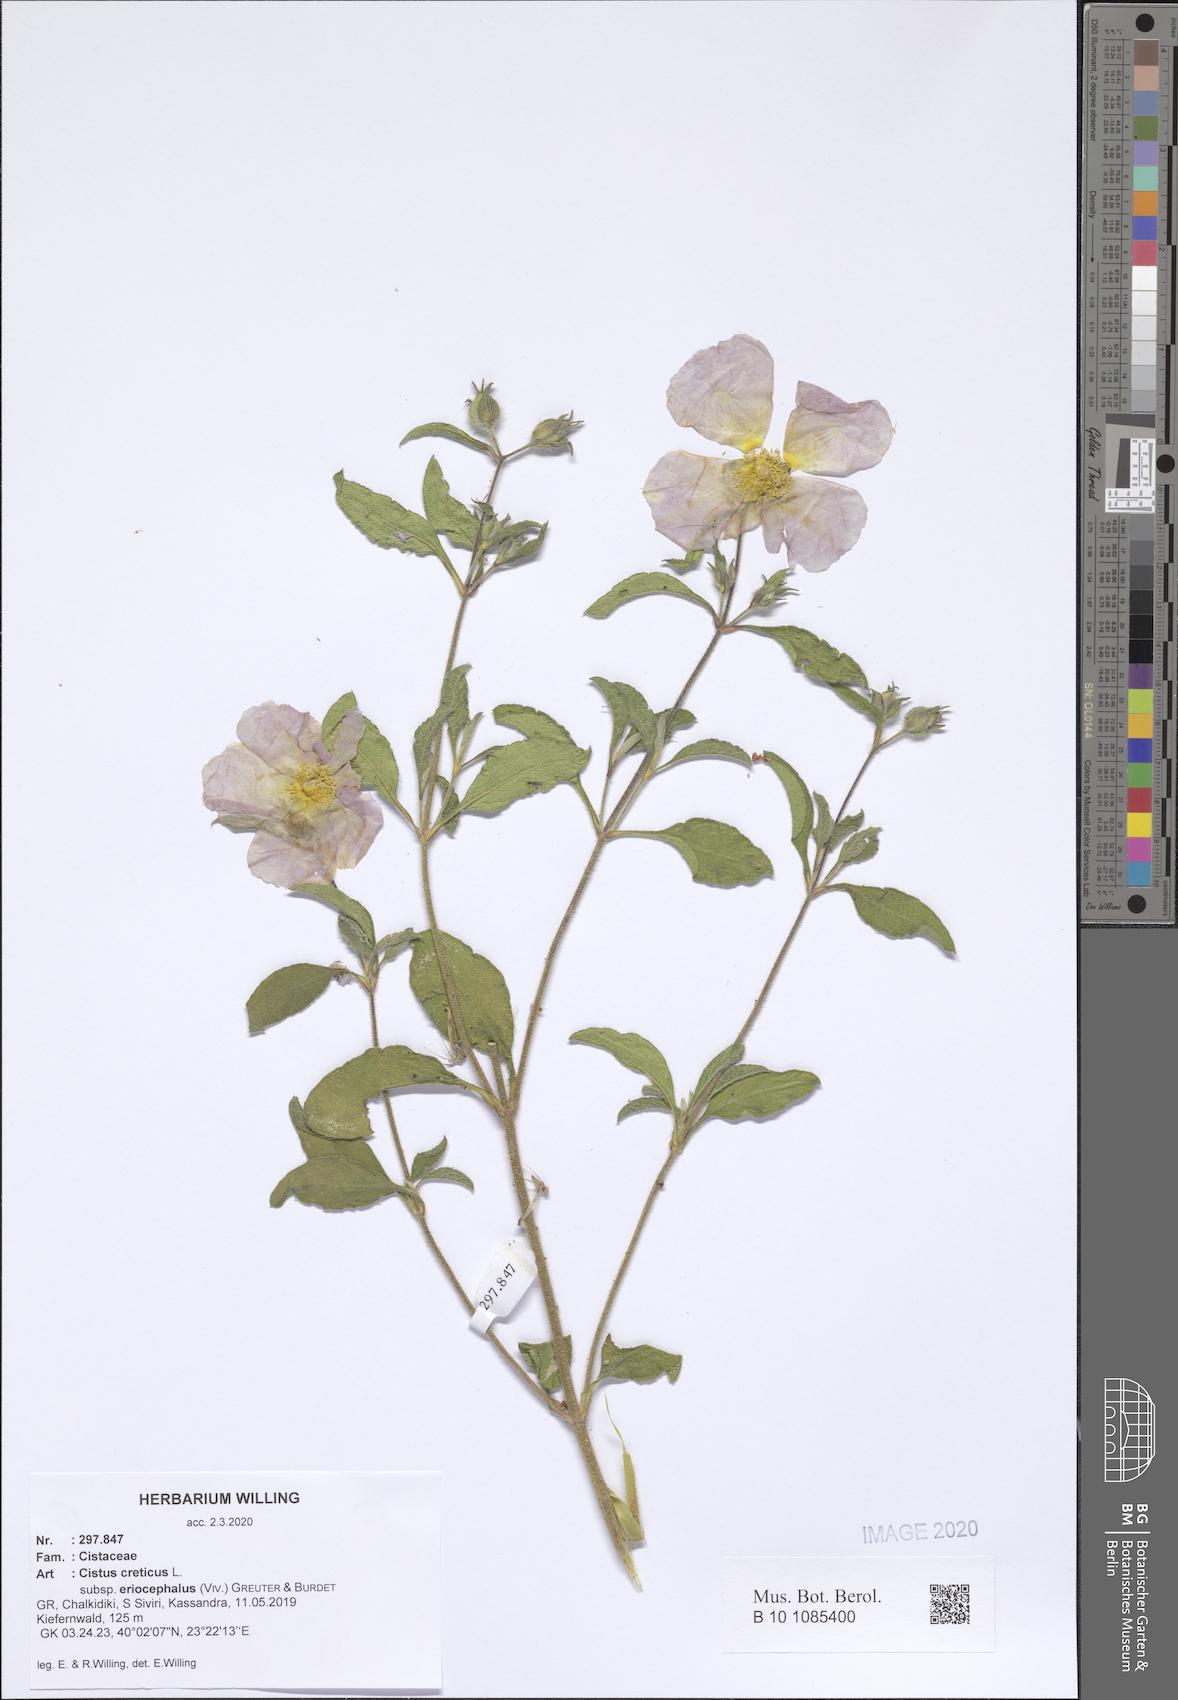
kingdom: Plantae
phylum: Tracheophyta
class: Magnoliopsida
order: Malvales
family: Cistaceae
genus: Cistus
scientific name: Cistus tauricus
